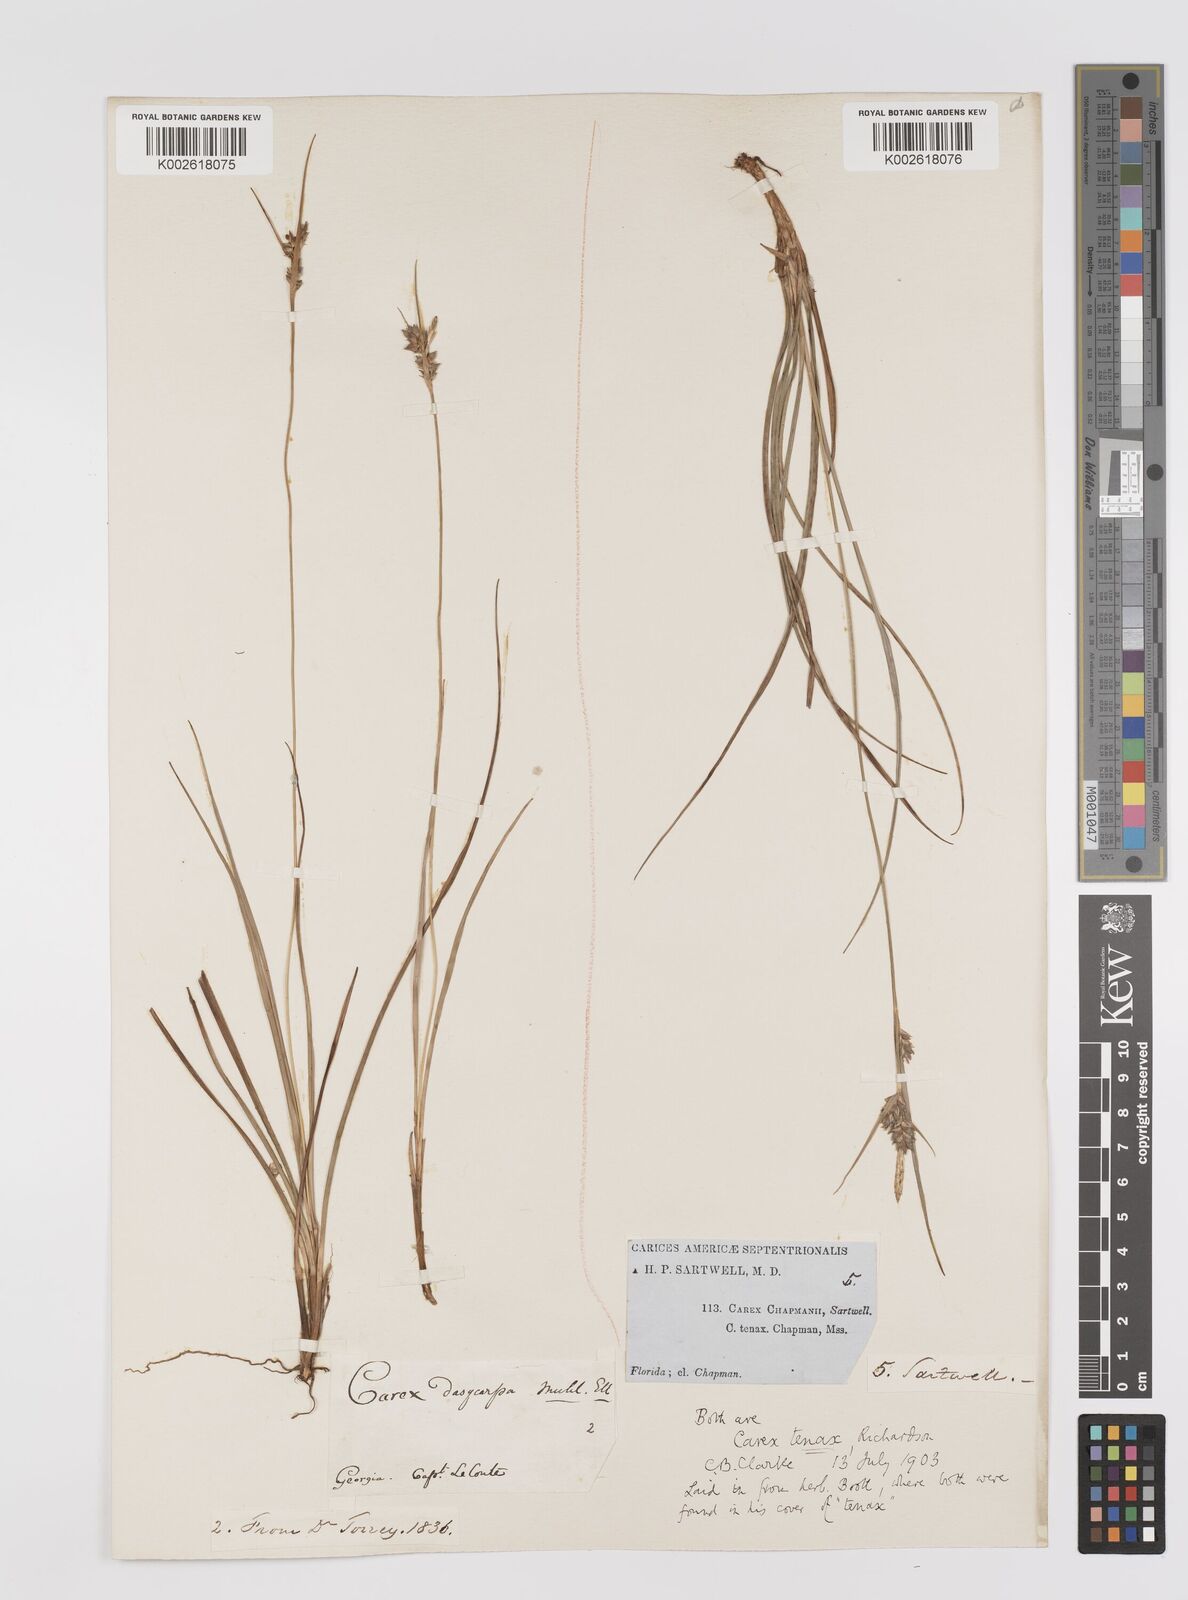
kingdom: Plantae
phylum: Tracheophyta
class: Liliopsida
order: Poales
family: Cyperaceae
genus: Carex
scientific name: Carex tenax
